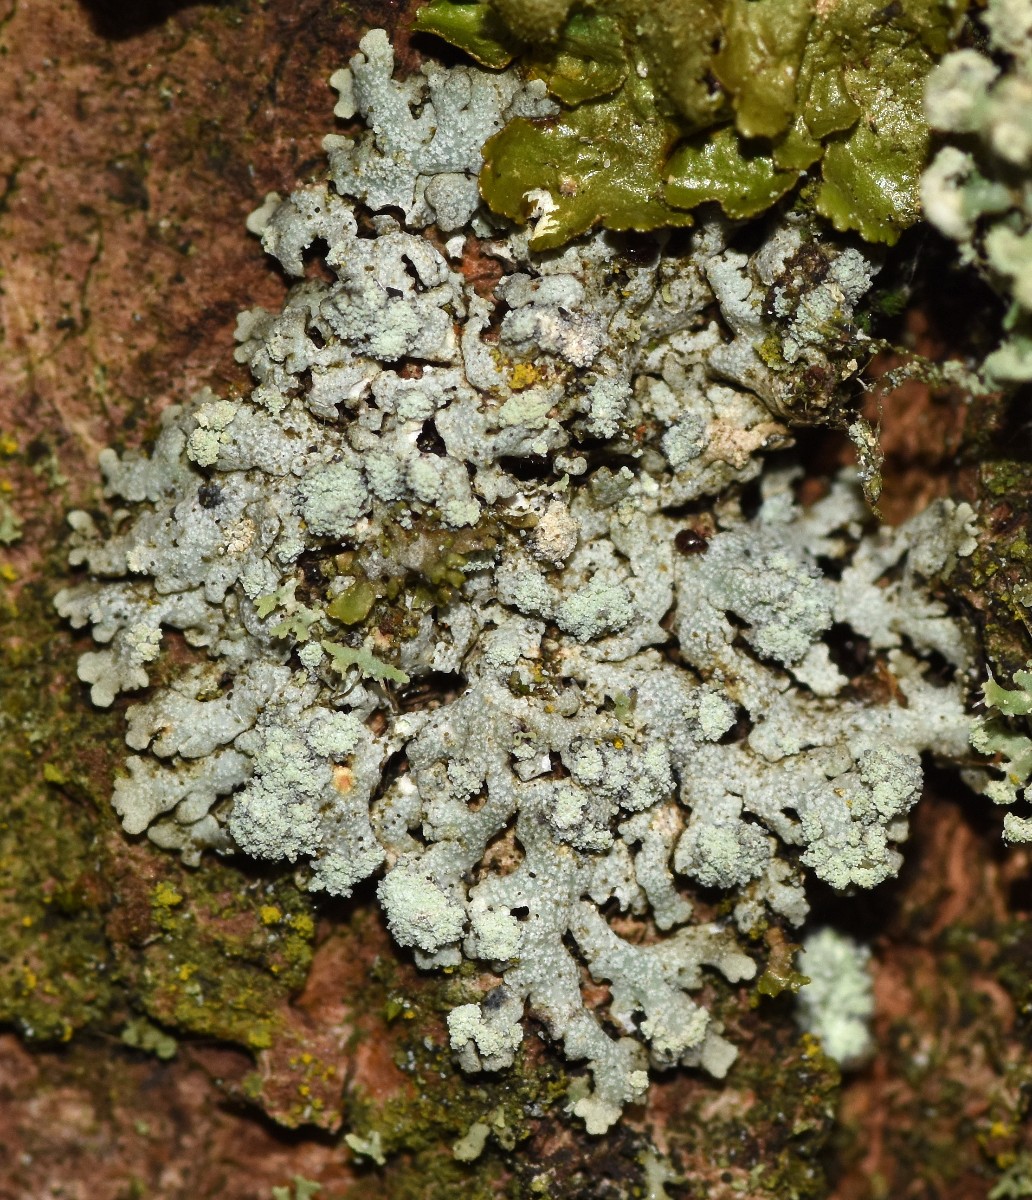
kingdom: Fungi
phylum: Ascomycota
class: Lecanoromycetes
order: Caliciales
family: Physciaceae
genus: Physcia
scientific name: Physcia caesia
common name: blågrå rosetlav
